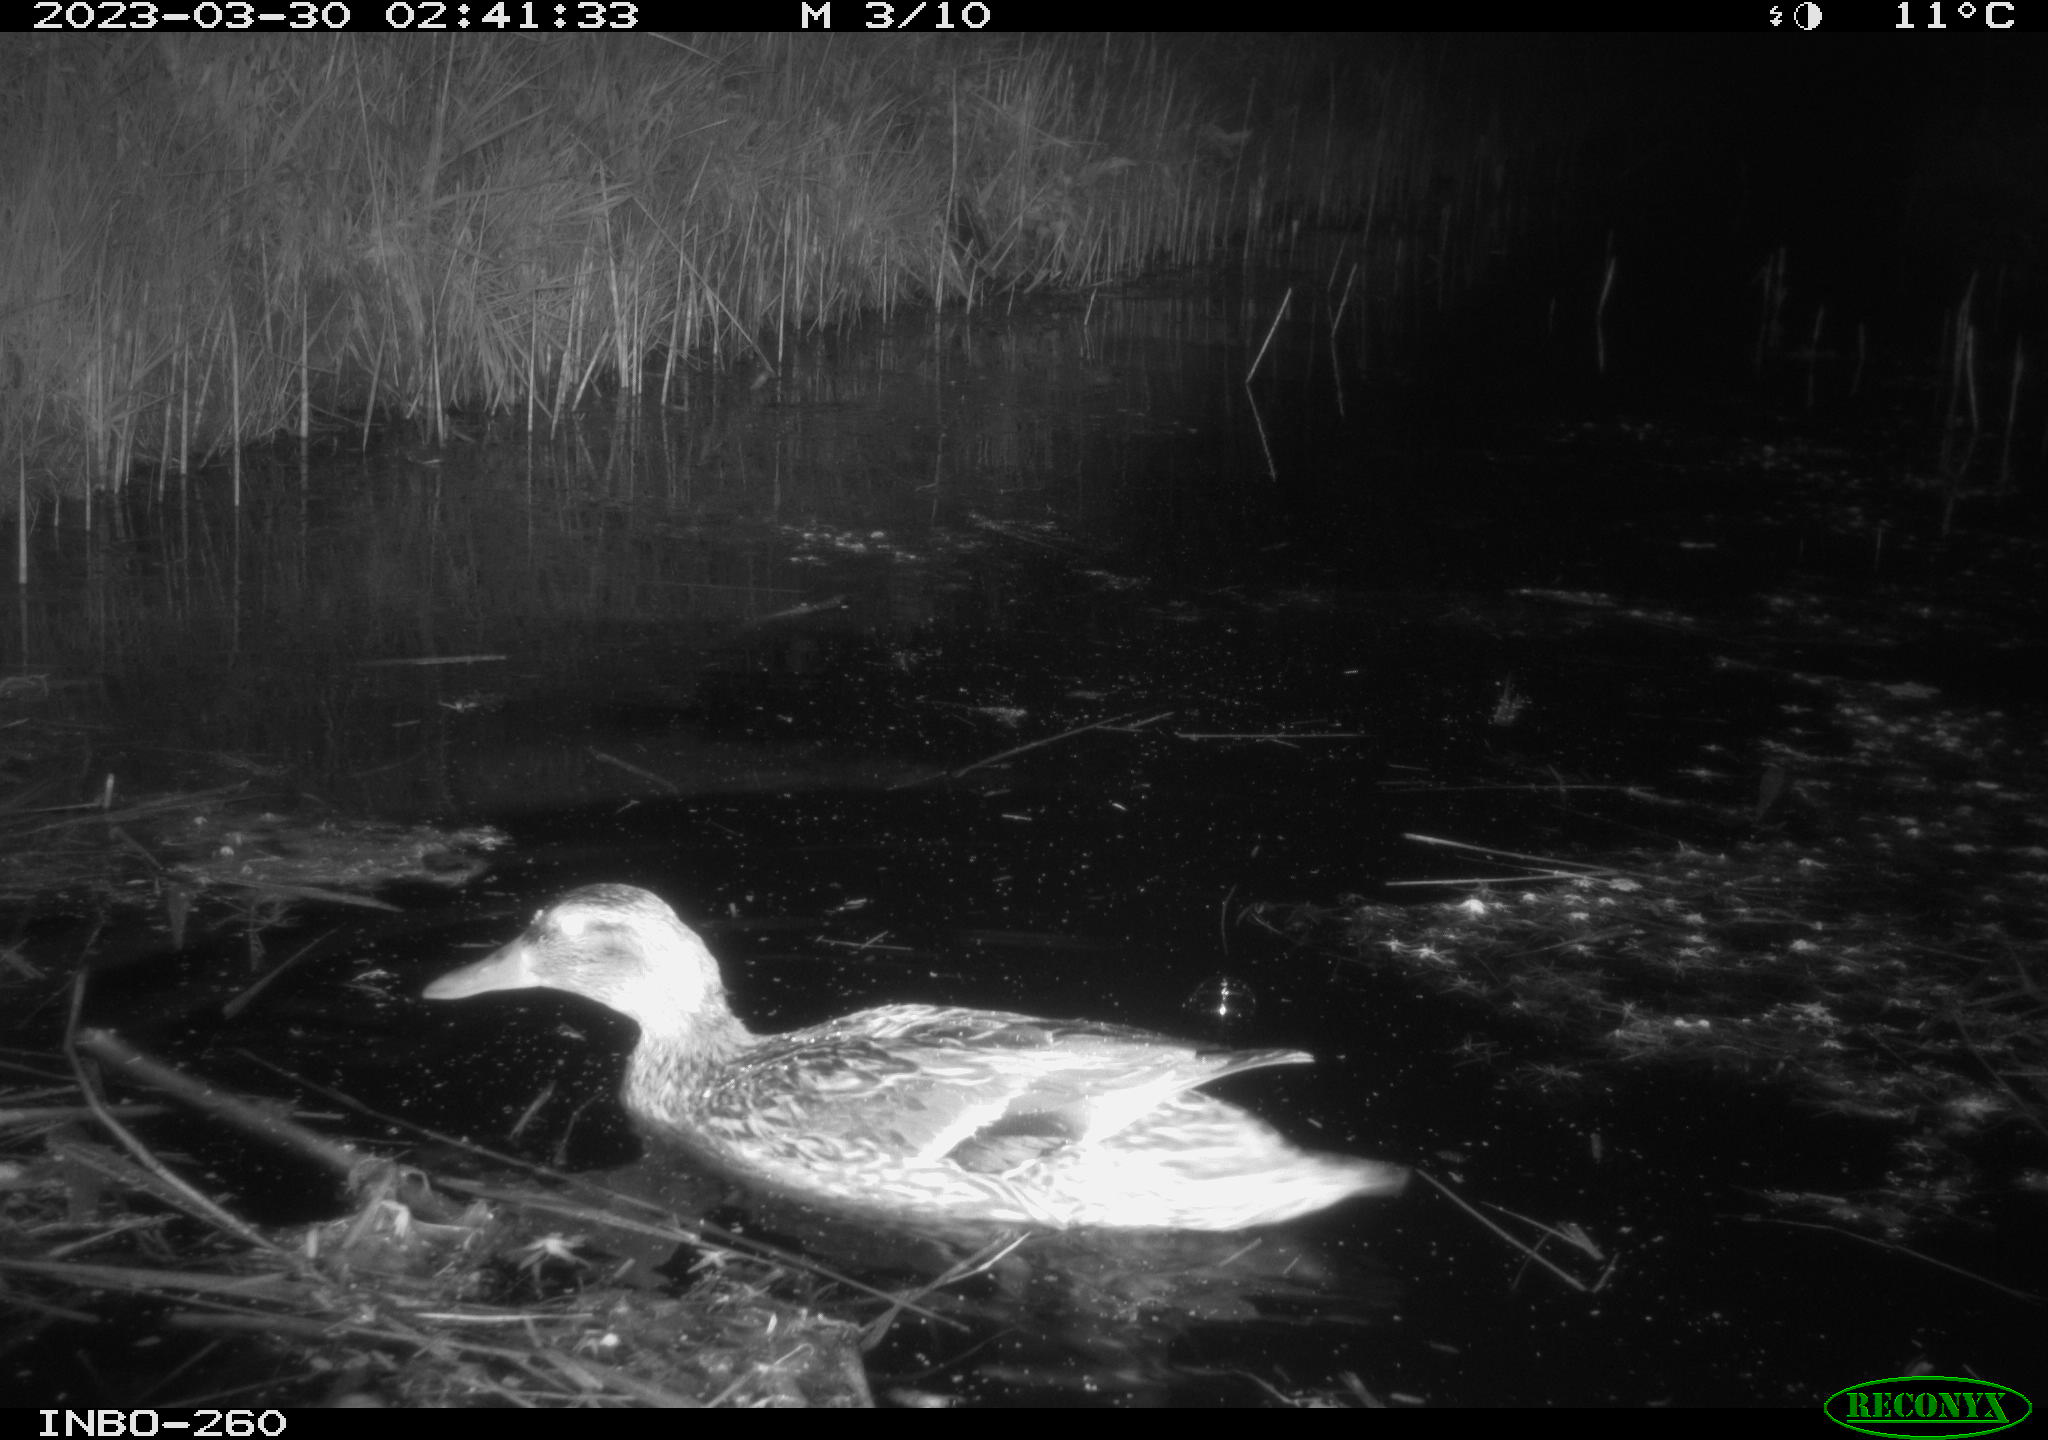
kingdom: Animalia
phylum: Chordata
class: Aves
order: Anseriformes
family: Anatidae
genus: Anas
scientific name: Anas
